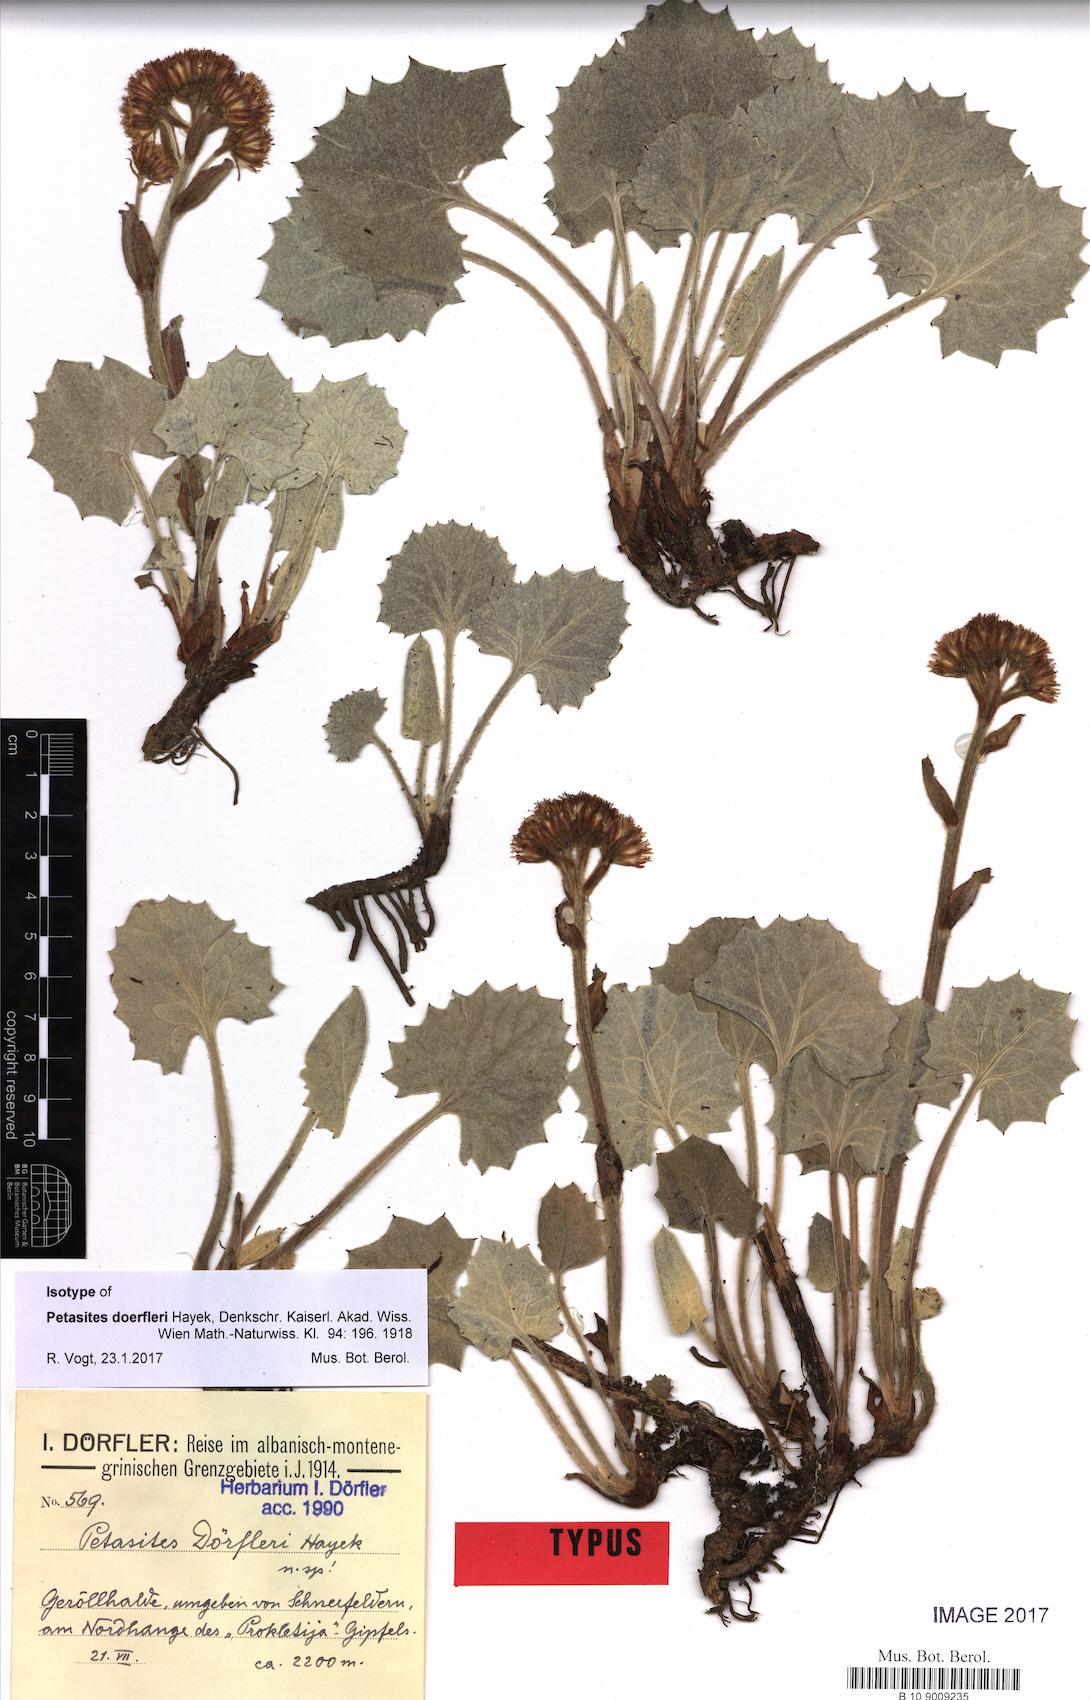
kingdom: Plantae
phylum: Tracheophyta
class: Magnoliopsida
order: Asterales
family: Asteraceae
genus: Petasites
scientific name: Petasites doerfleri
